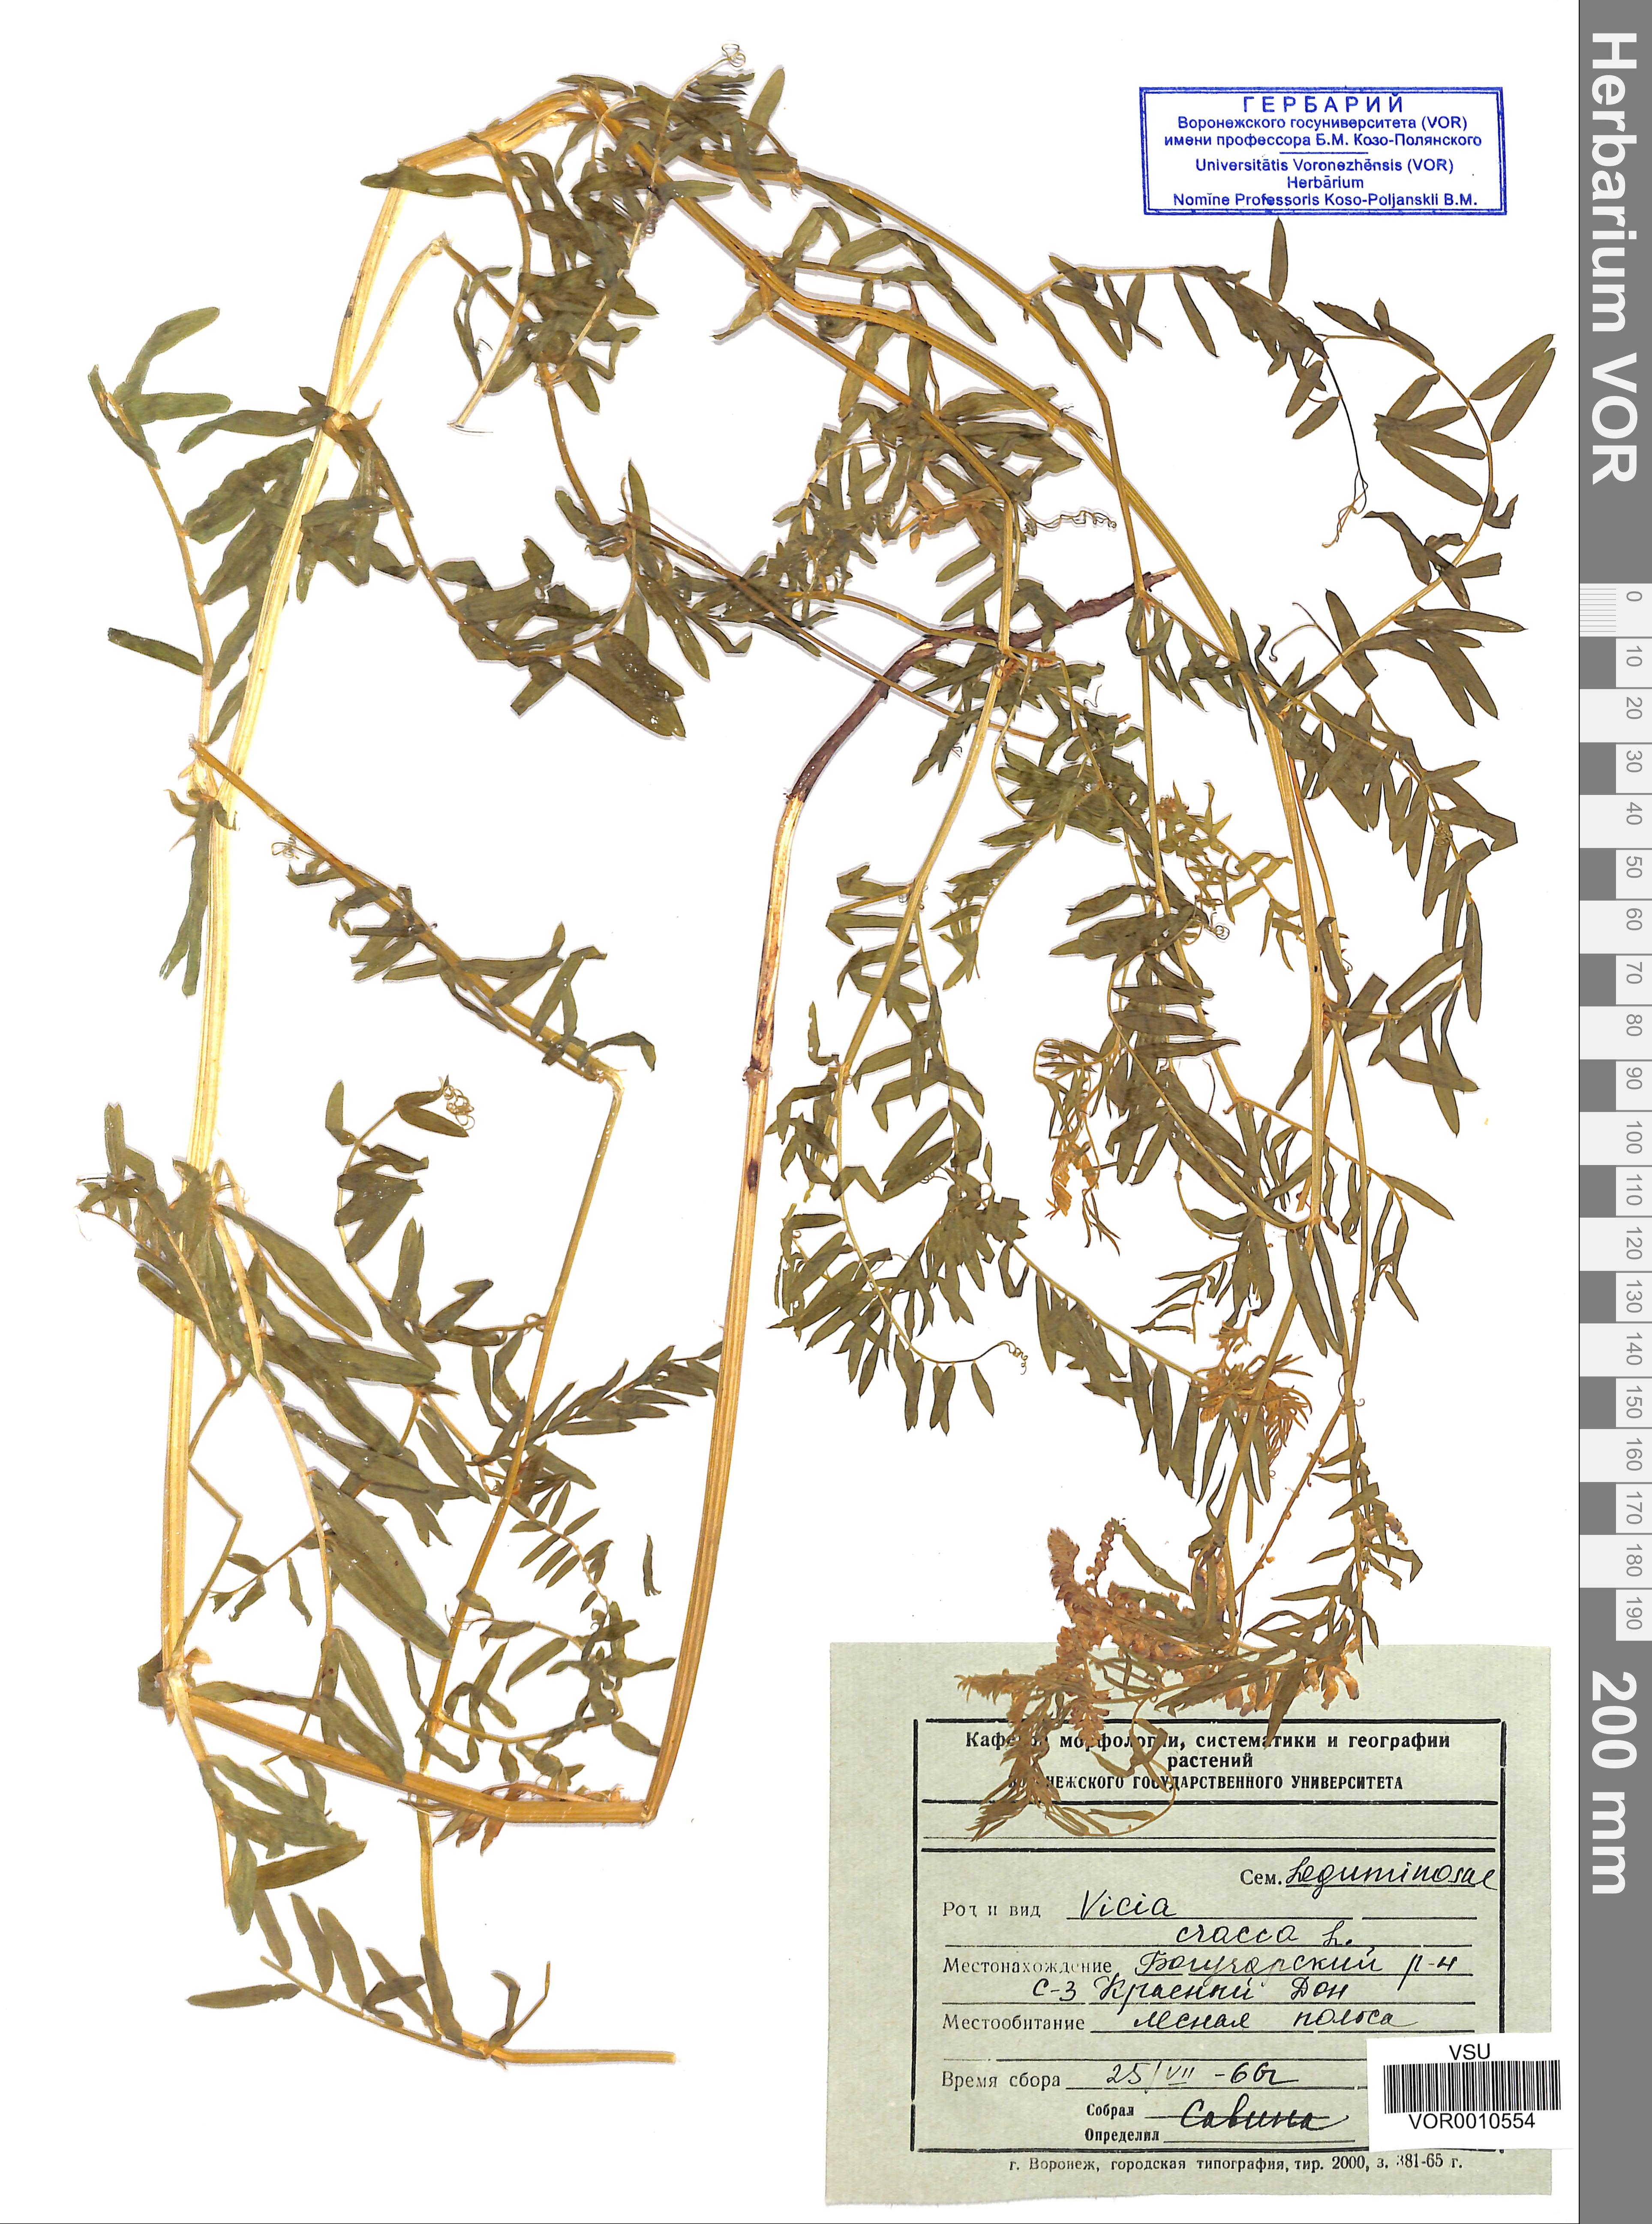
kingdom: Plantae
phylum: Tracheophyta
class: Magnoliopsida
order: Fabales
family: Fabaceae
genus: Vicia
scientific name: Vicia cracca
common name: Bird vetch
